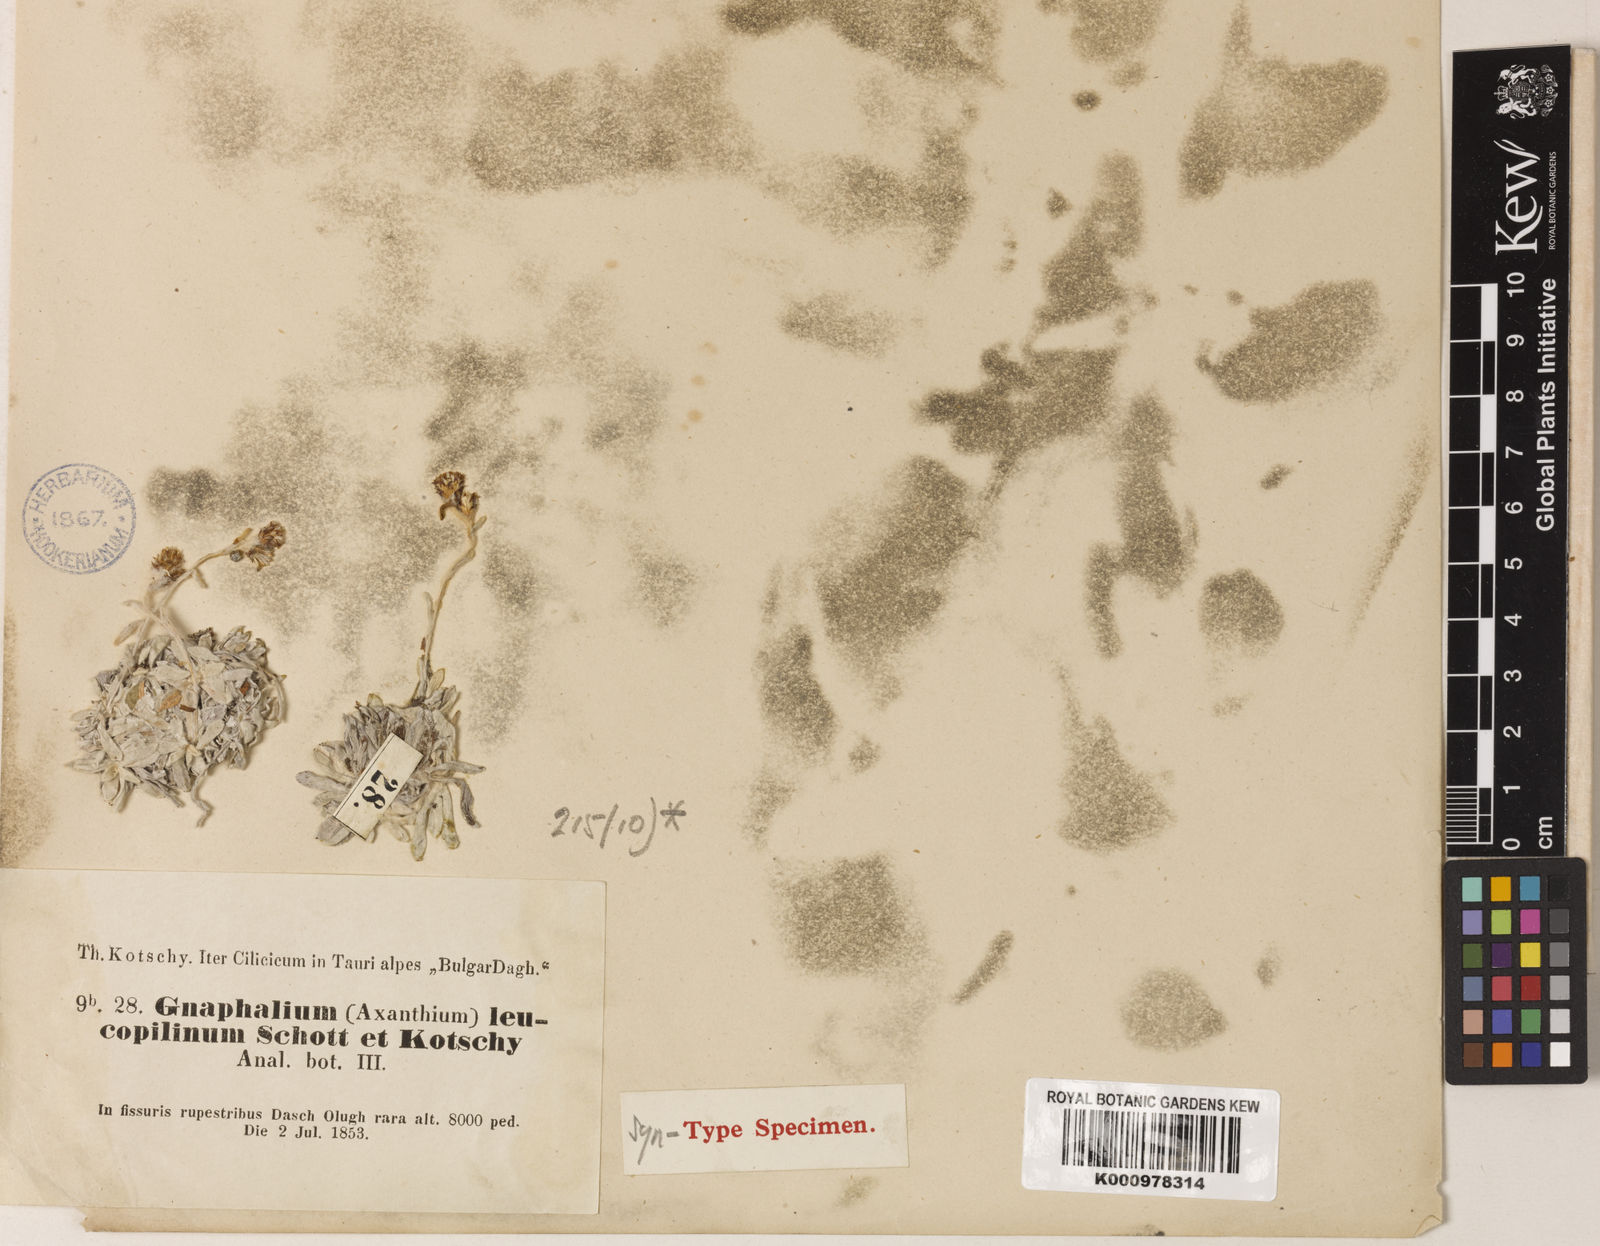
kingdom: Plantae
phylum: Tracheophyta
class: Magnoliopsida
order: Asterales
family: Asteraceae
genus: Omalotheca
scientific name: Omalotheca leucopilina
